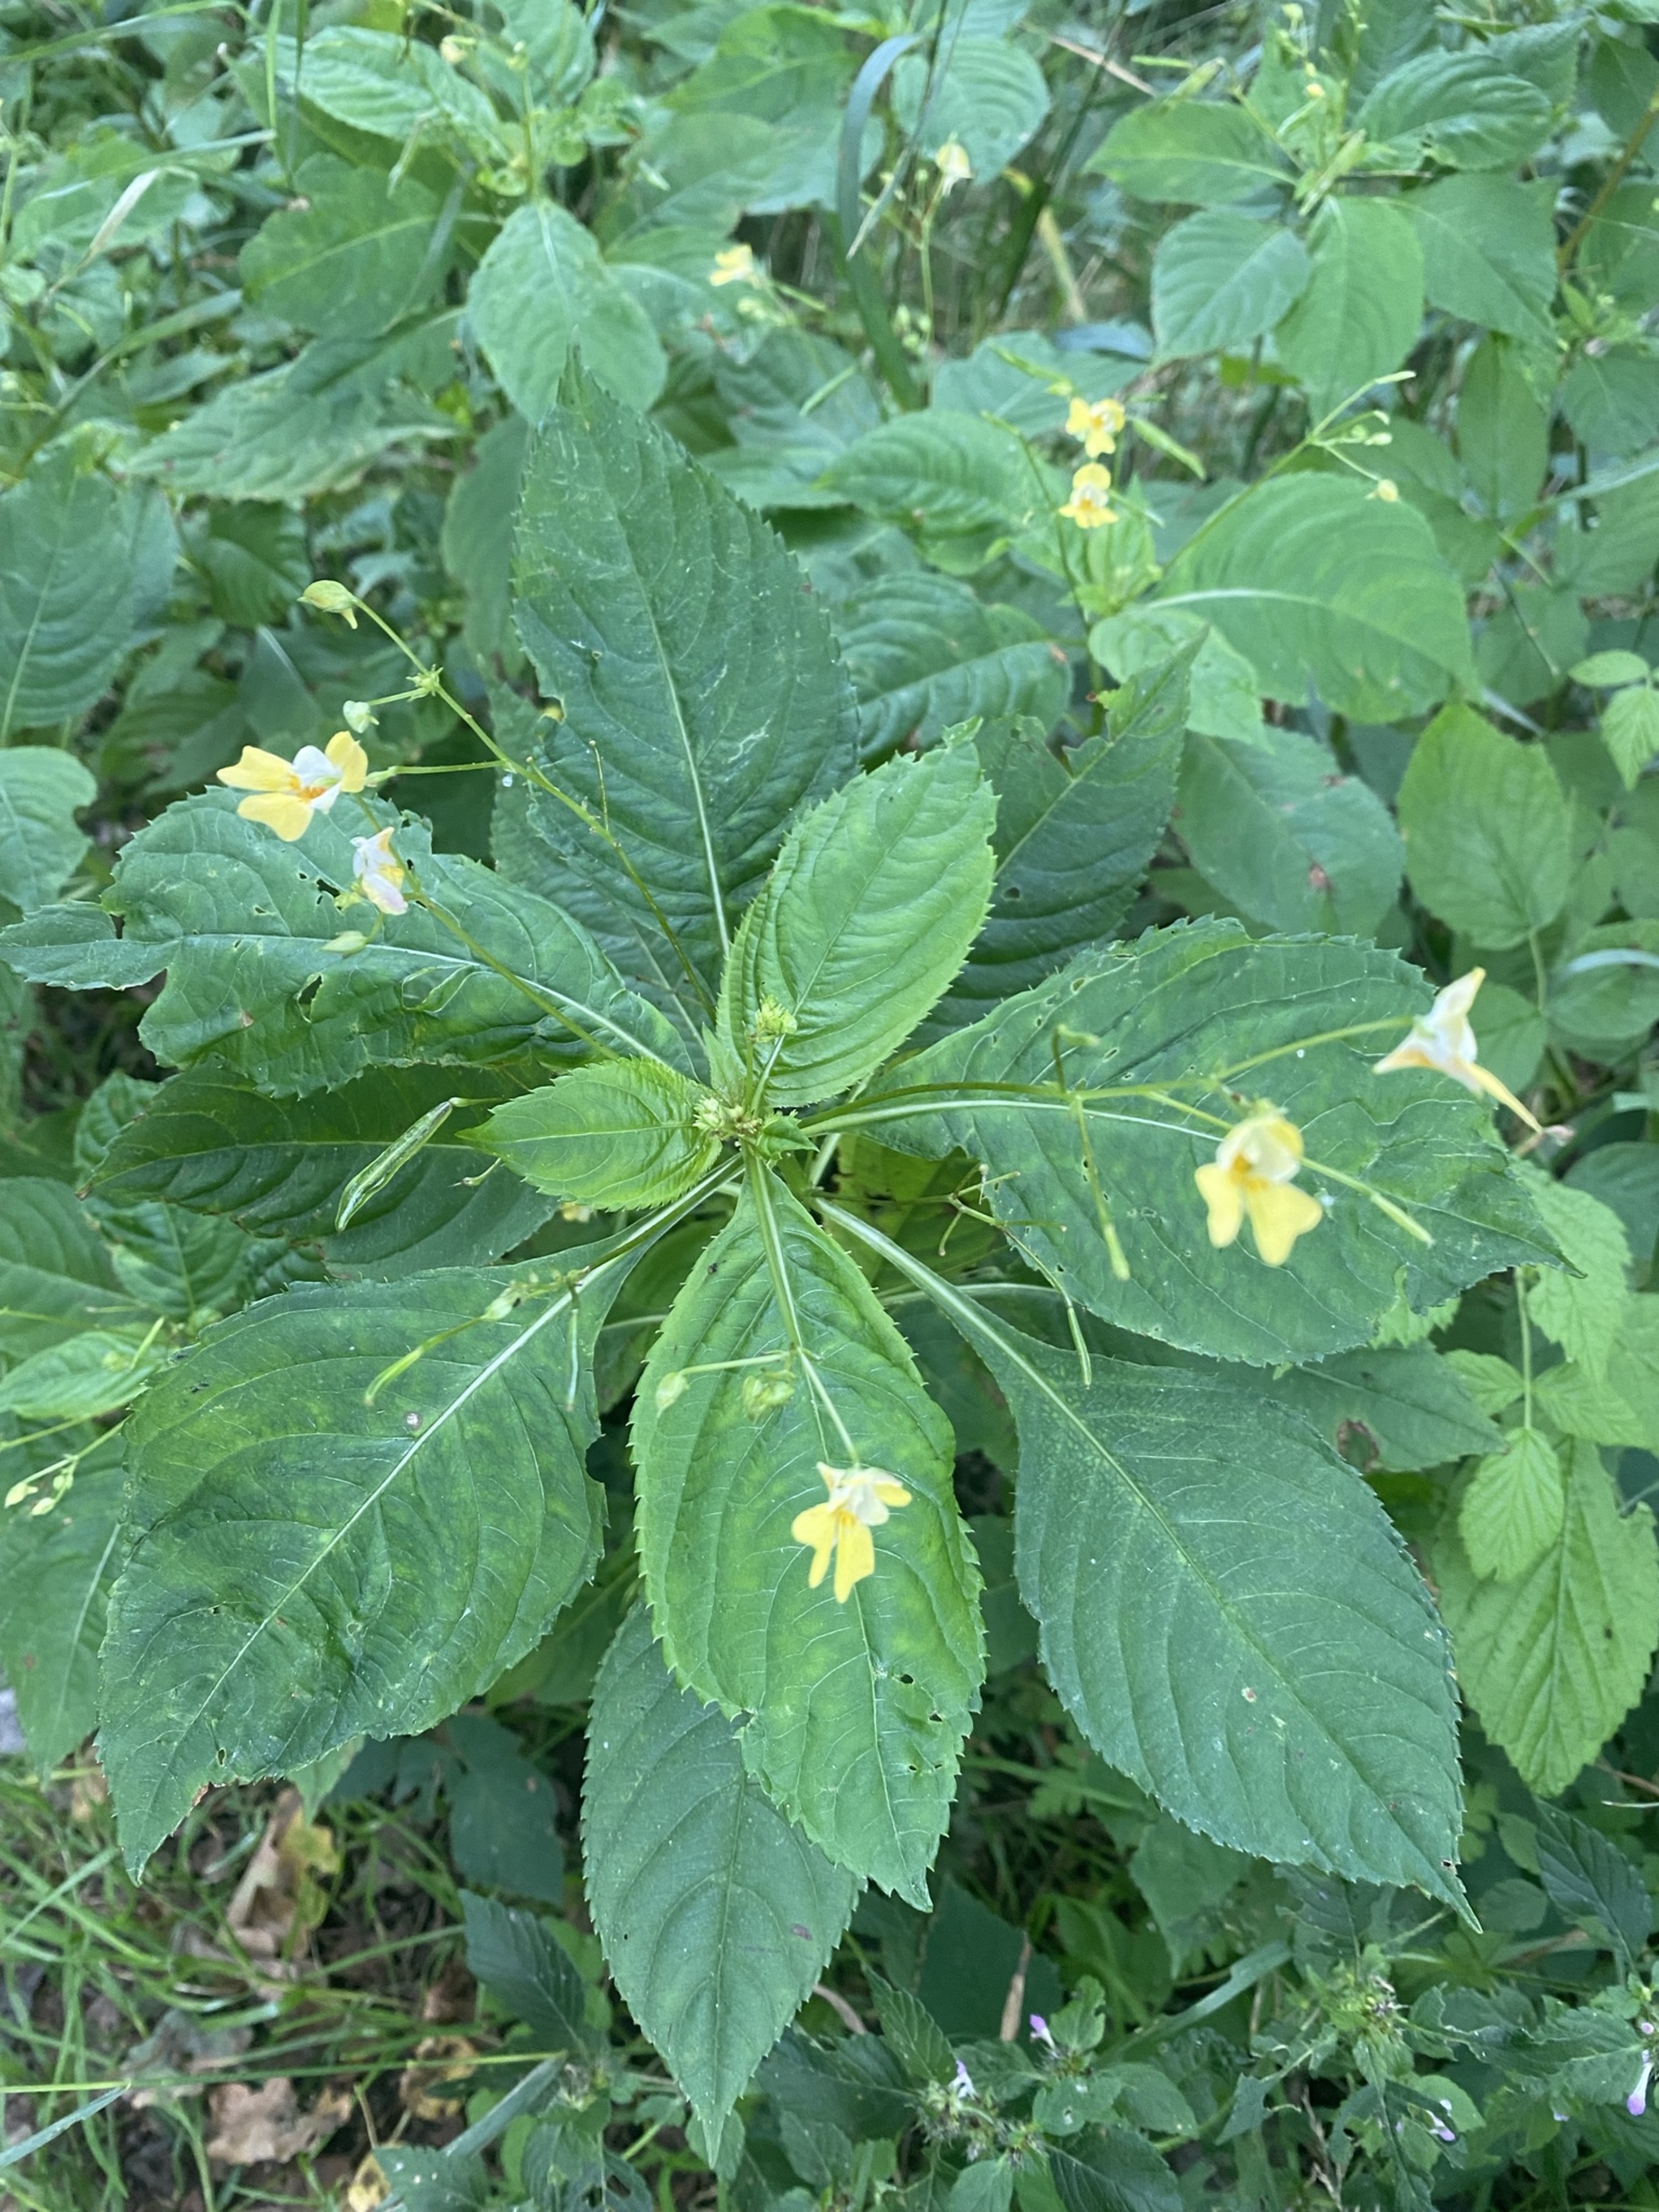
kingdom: Plantae
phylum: Tracheophyta
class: Magnoliopsida
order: Ericales
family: Balsaminaceae
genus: Impatiens
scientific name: Impatiens parviflora
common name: Småblomstret balsamin
